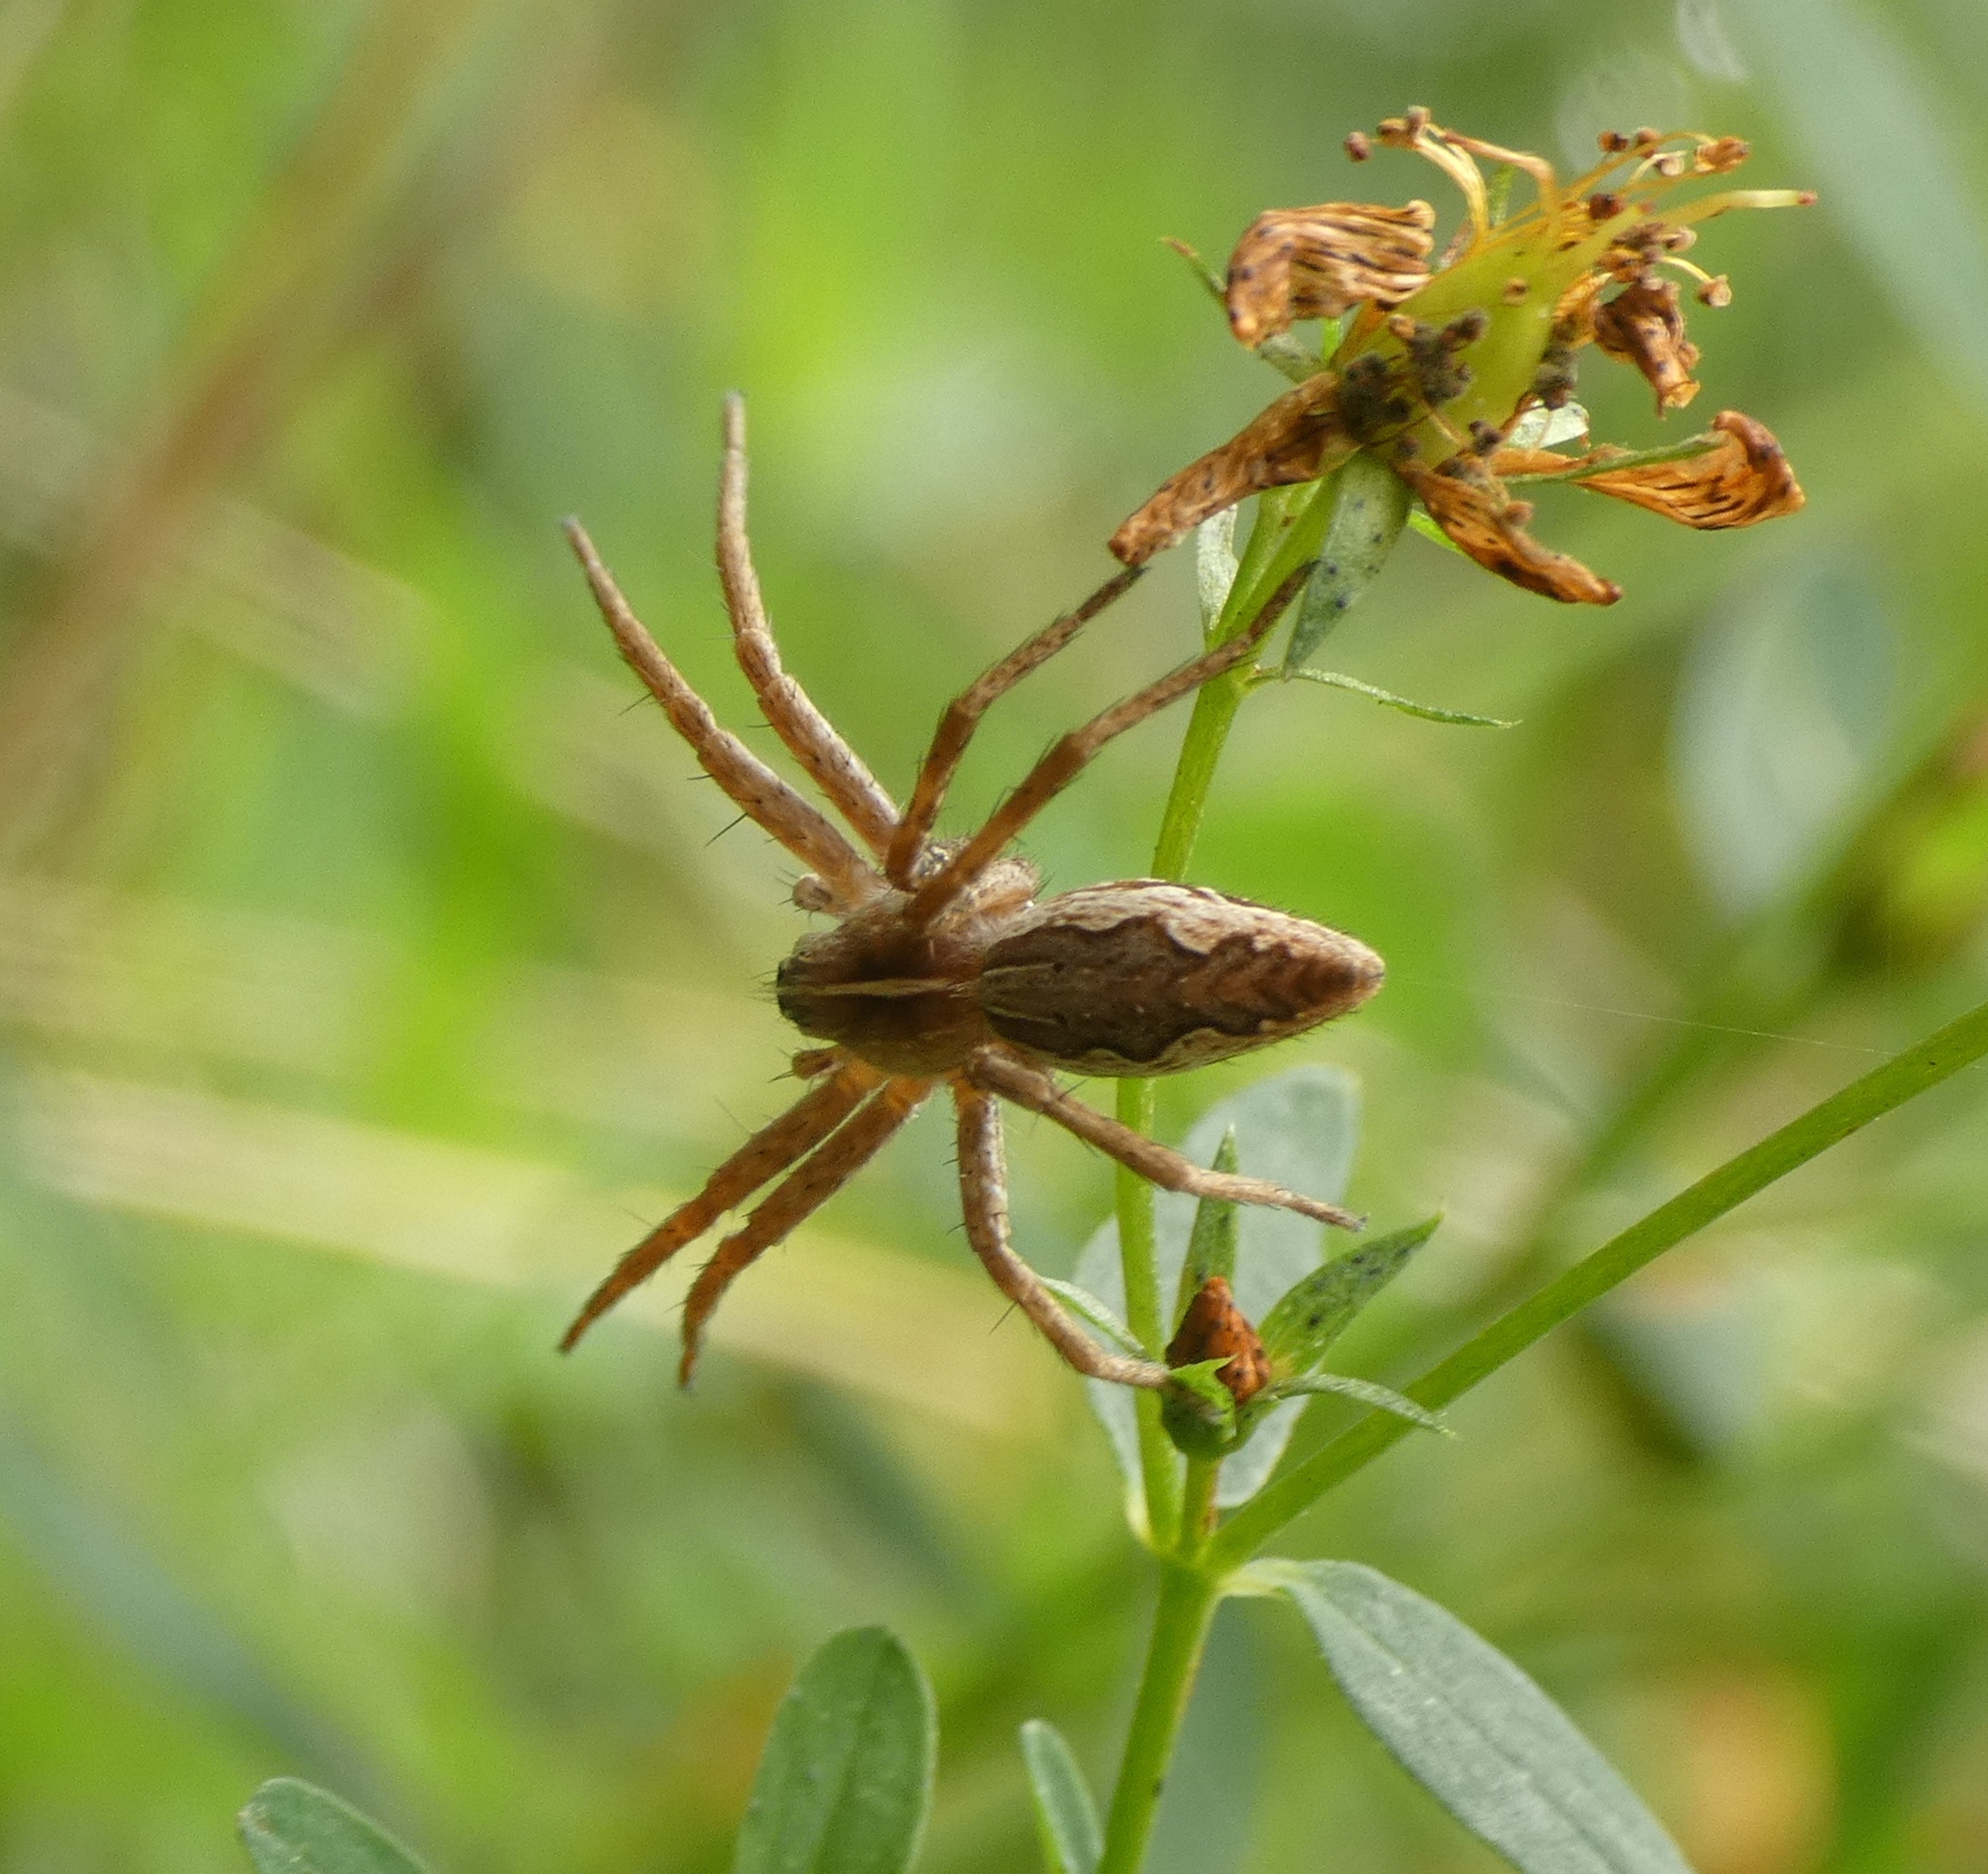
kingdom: Animalia
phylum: Arthropoda
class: Arachnida
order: Araneae
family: Pisauridae
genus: Pisaura
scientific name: Pisaura mirabilis
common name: Almindelig rovedderkop
